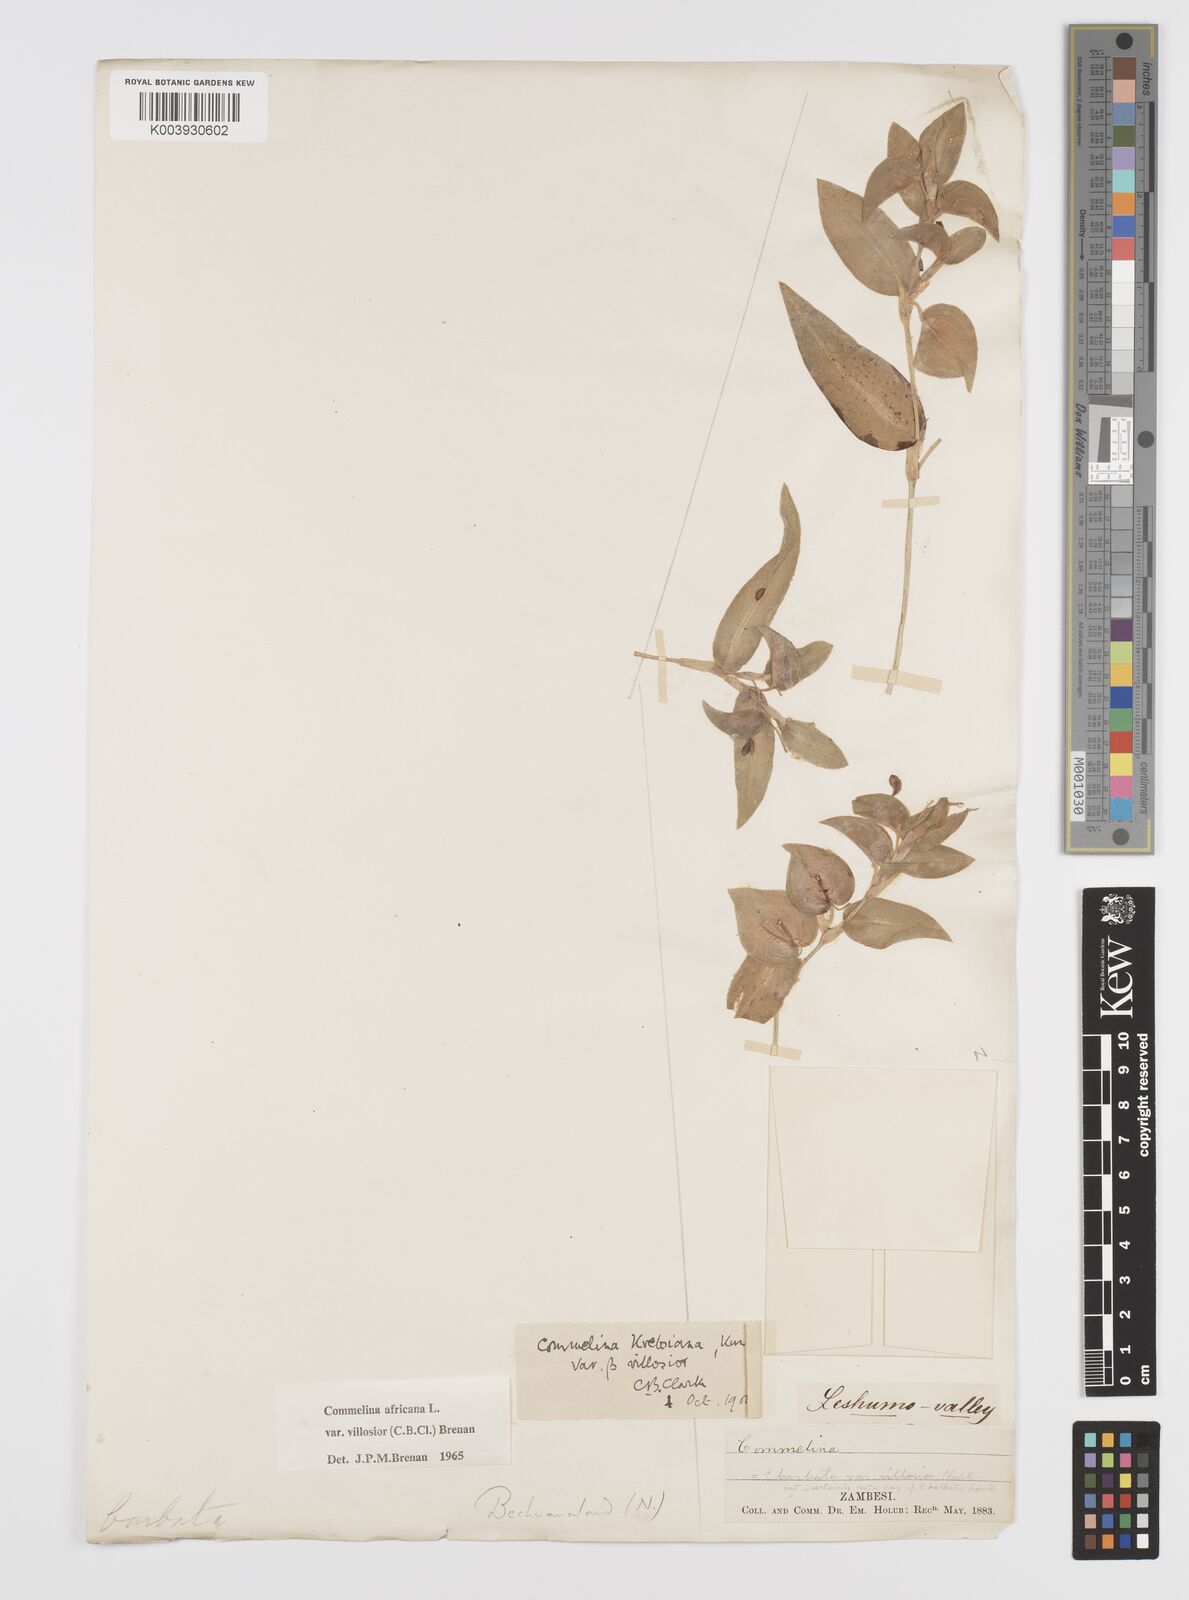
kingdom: Plantae
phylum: Tracheophyta
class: Liliopsida
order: Commelinales
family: Commelinaceae
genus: Commelina
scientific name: Commelina africana
